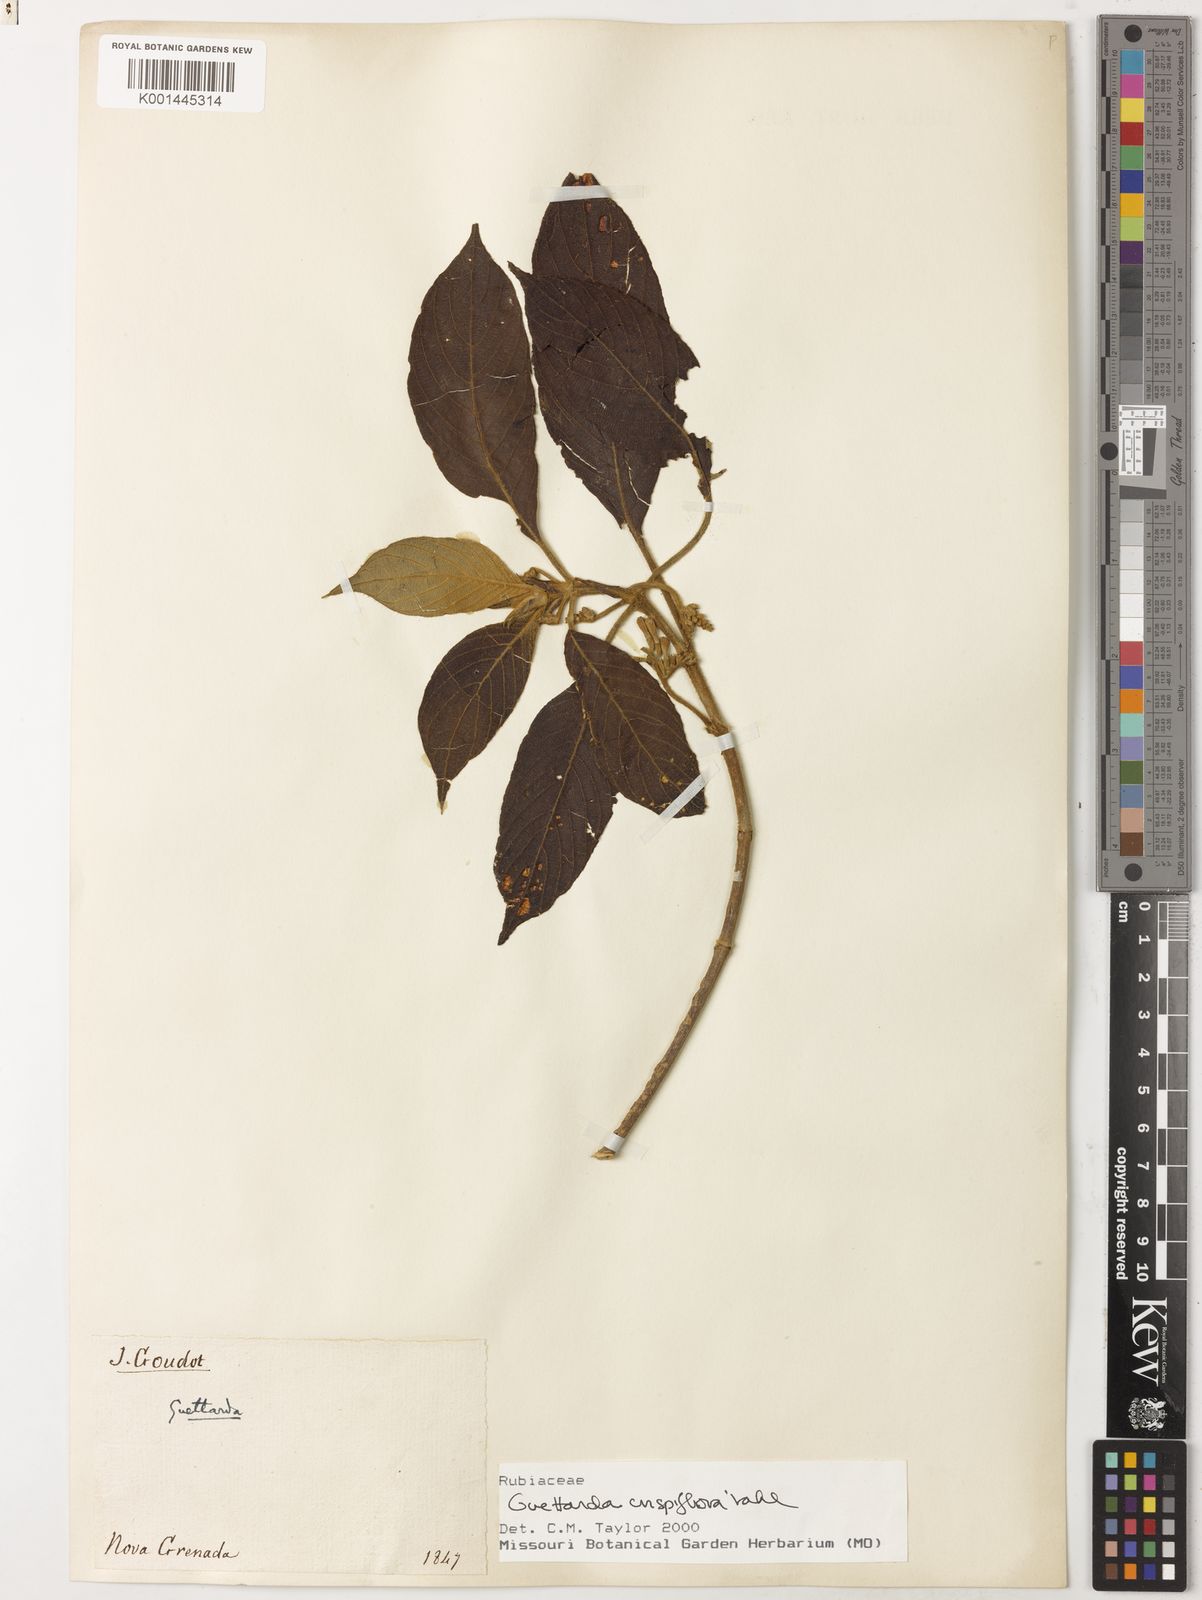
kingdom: Plantae
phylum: Tracheophyta
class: Magnoliopsida
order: Gentianales
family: Rubiaceae
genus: Tournefortiopsis
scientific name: Tournefortiopsis crispiflora
